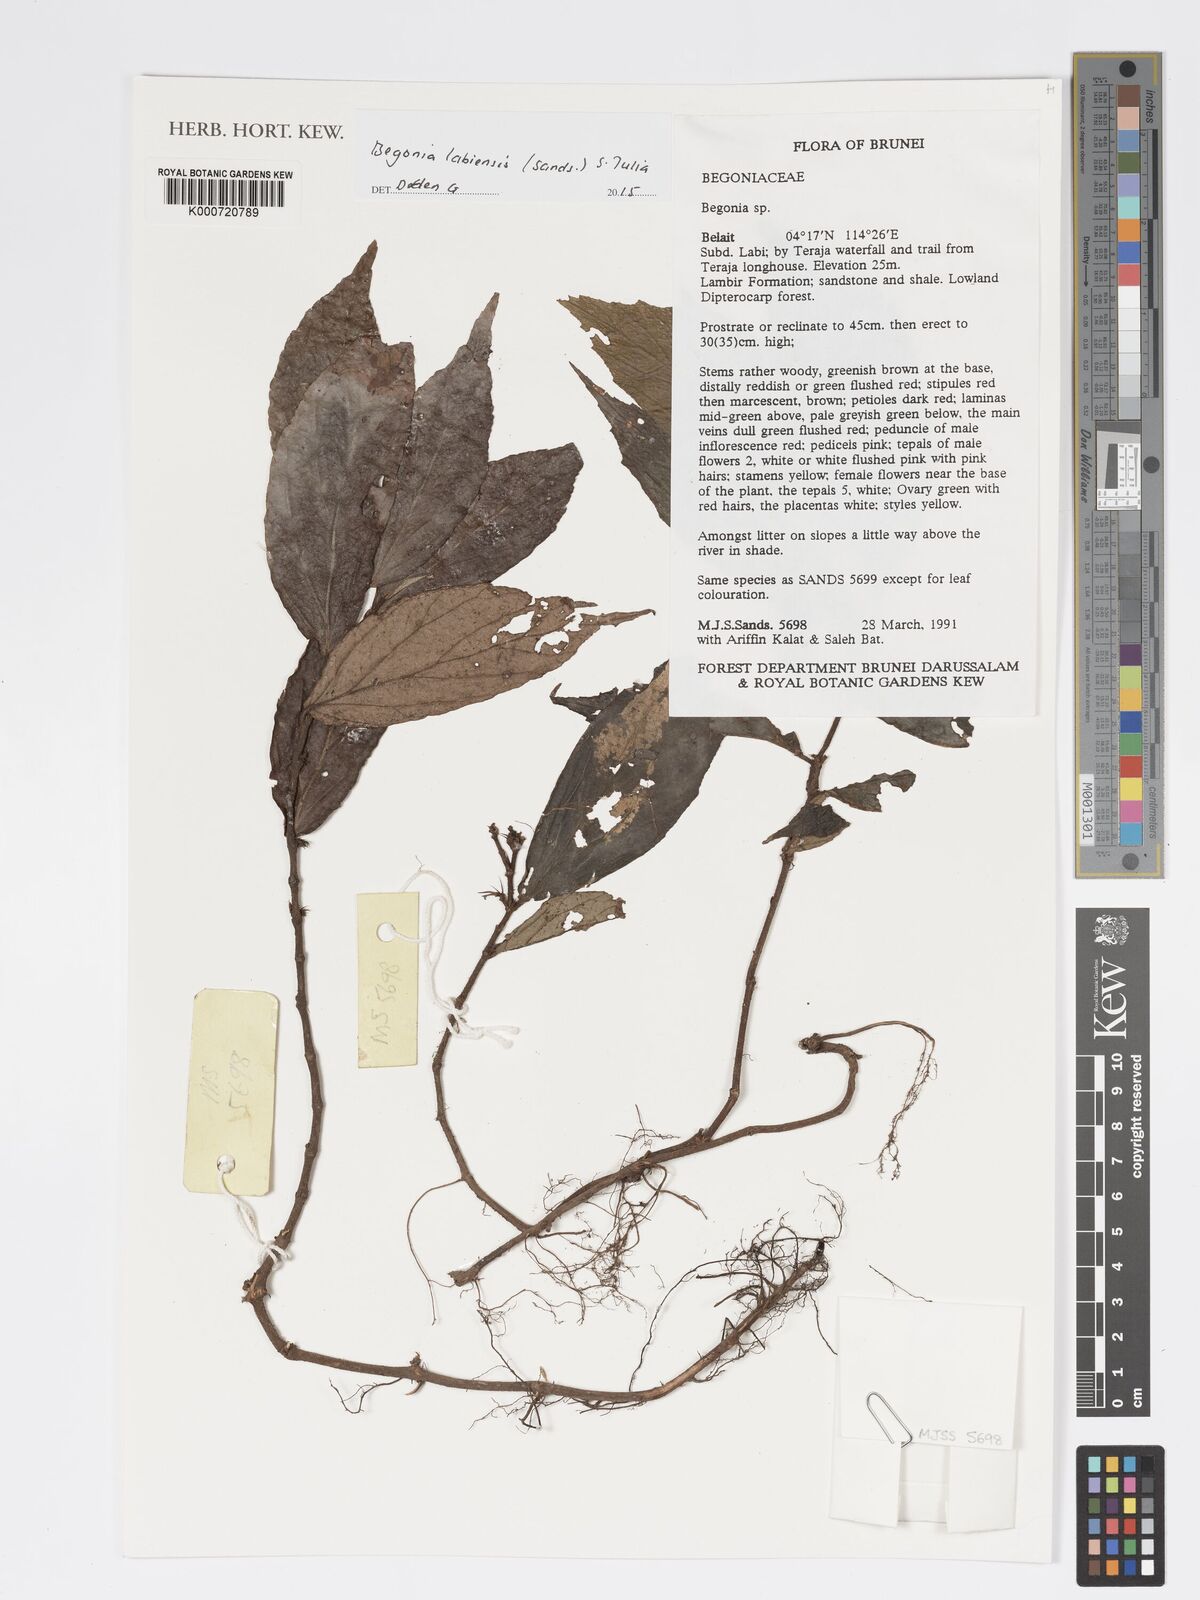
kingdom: Plantae
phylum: Tracheophyta
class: Magnoliopsida
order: Cucurbitales
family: Begoniaceae
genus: Begonia
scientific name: Begonia labiensis
